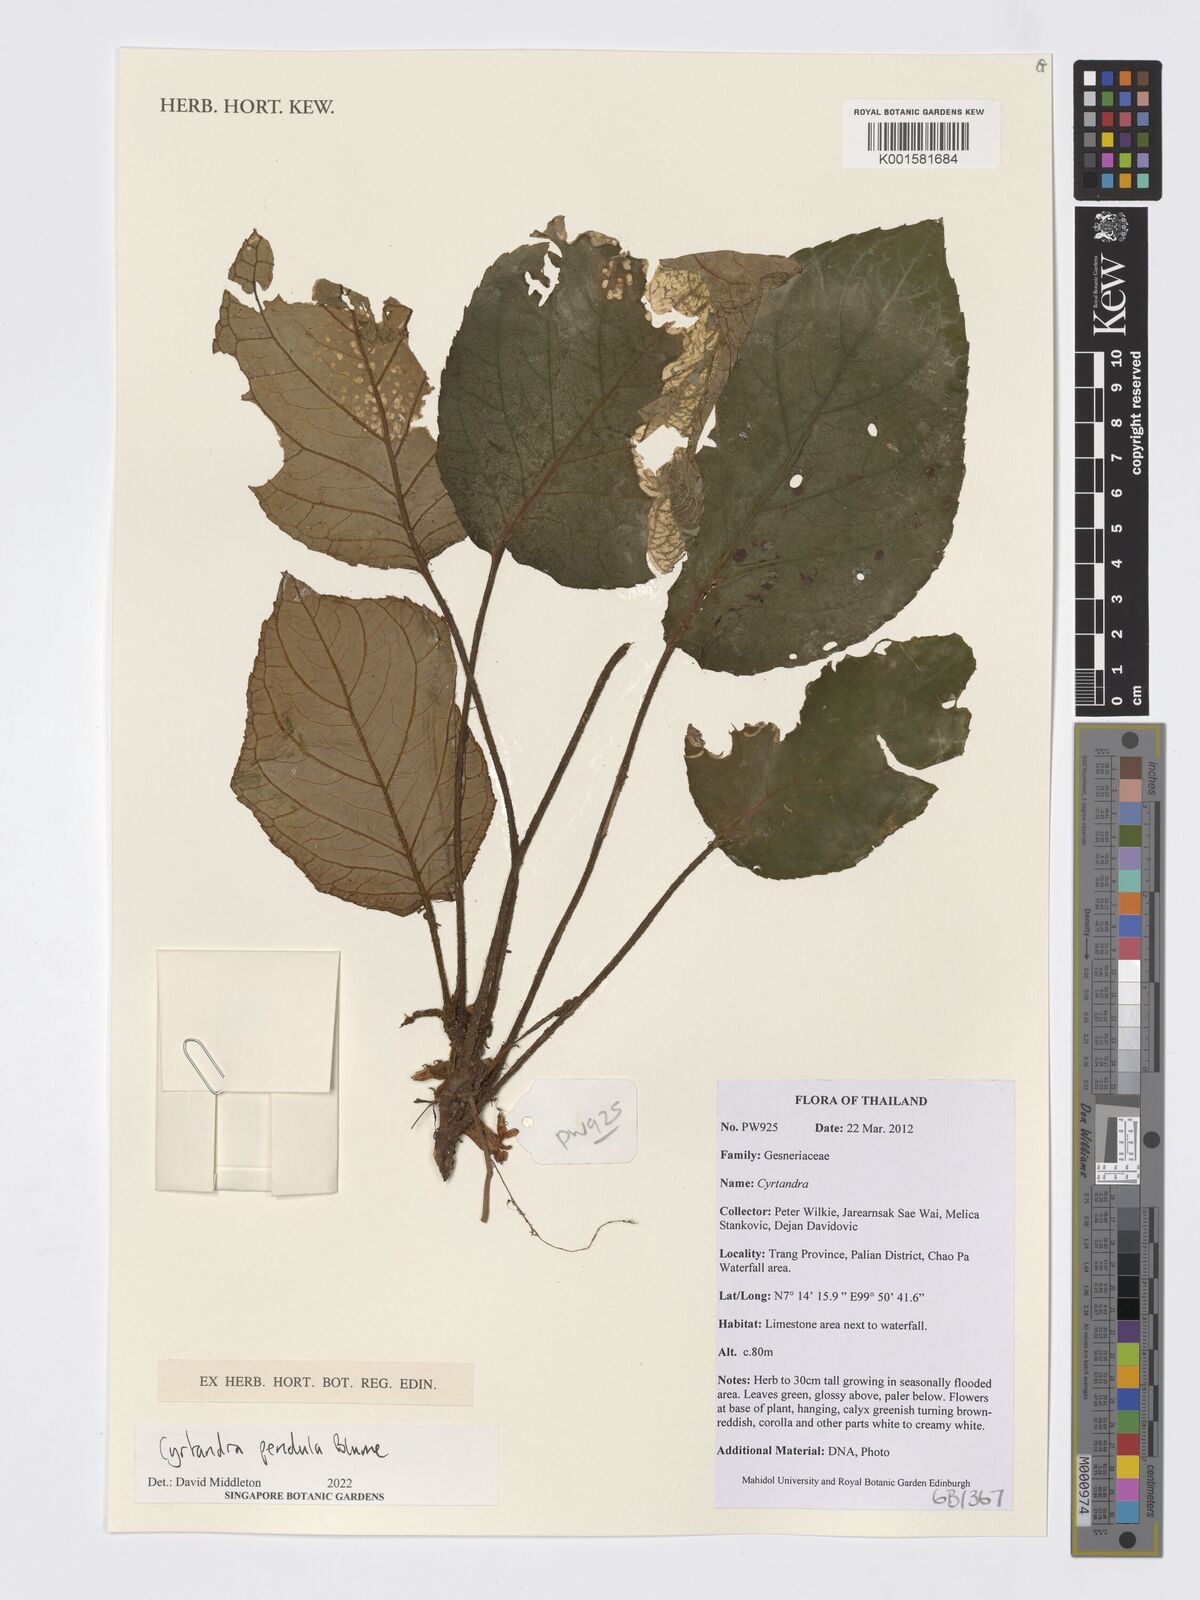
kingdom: Plantae
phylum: Tracheophyta
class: Magnoliopsida
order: Lamiales
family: Gesneriaceae
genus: Cyrtandra
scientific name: Cyrtandra
